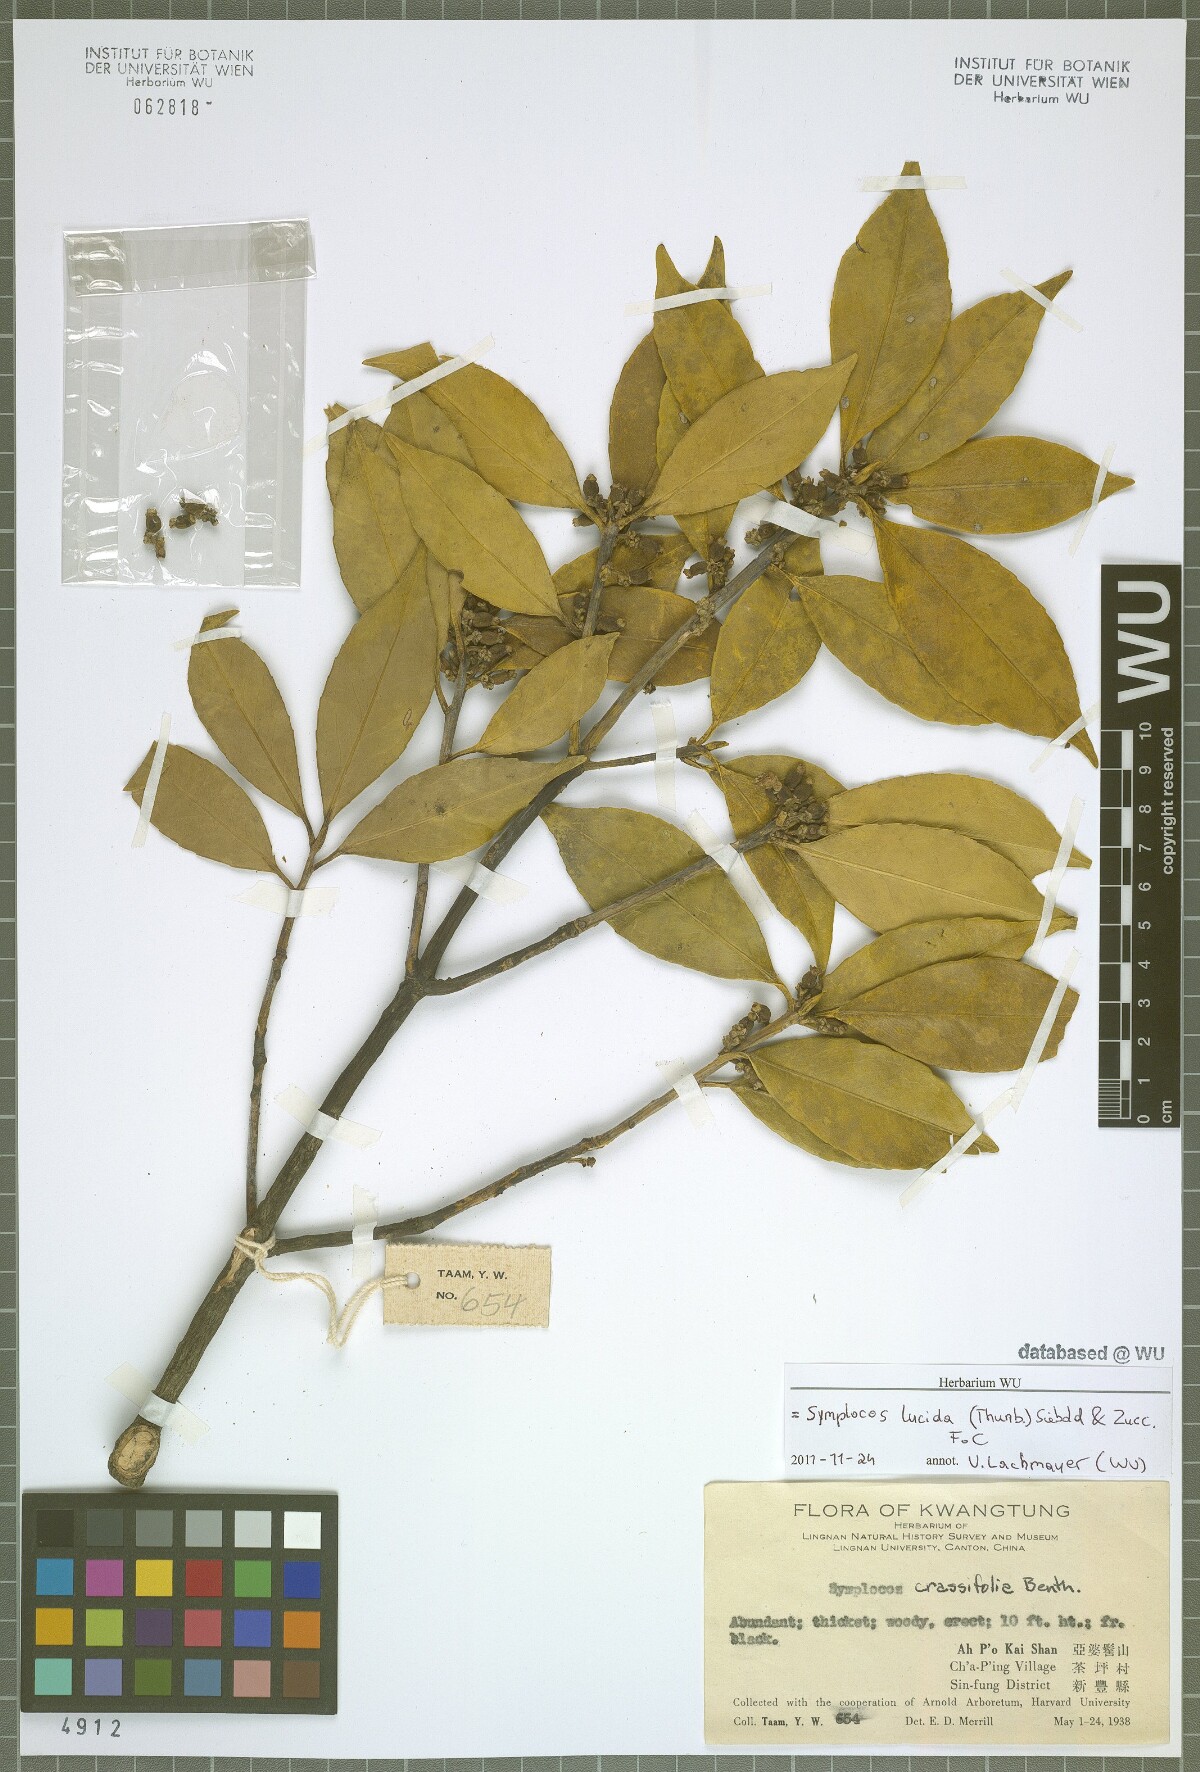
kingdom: Plantae
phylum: Tracheophyta
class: Magnoliopsida
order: Ericales
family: Symplocaceae
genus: Symplocos
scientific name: Symplocos nakaharae
